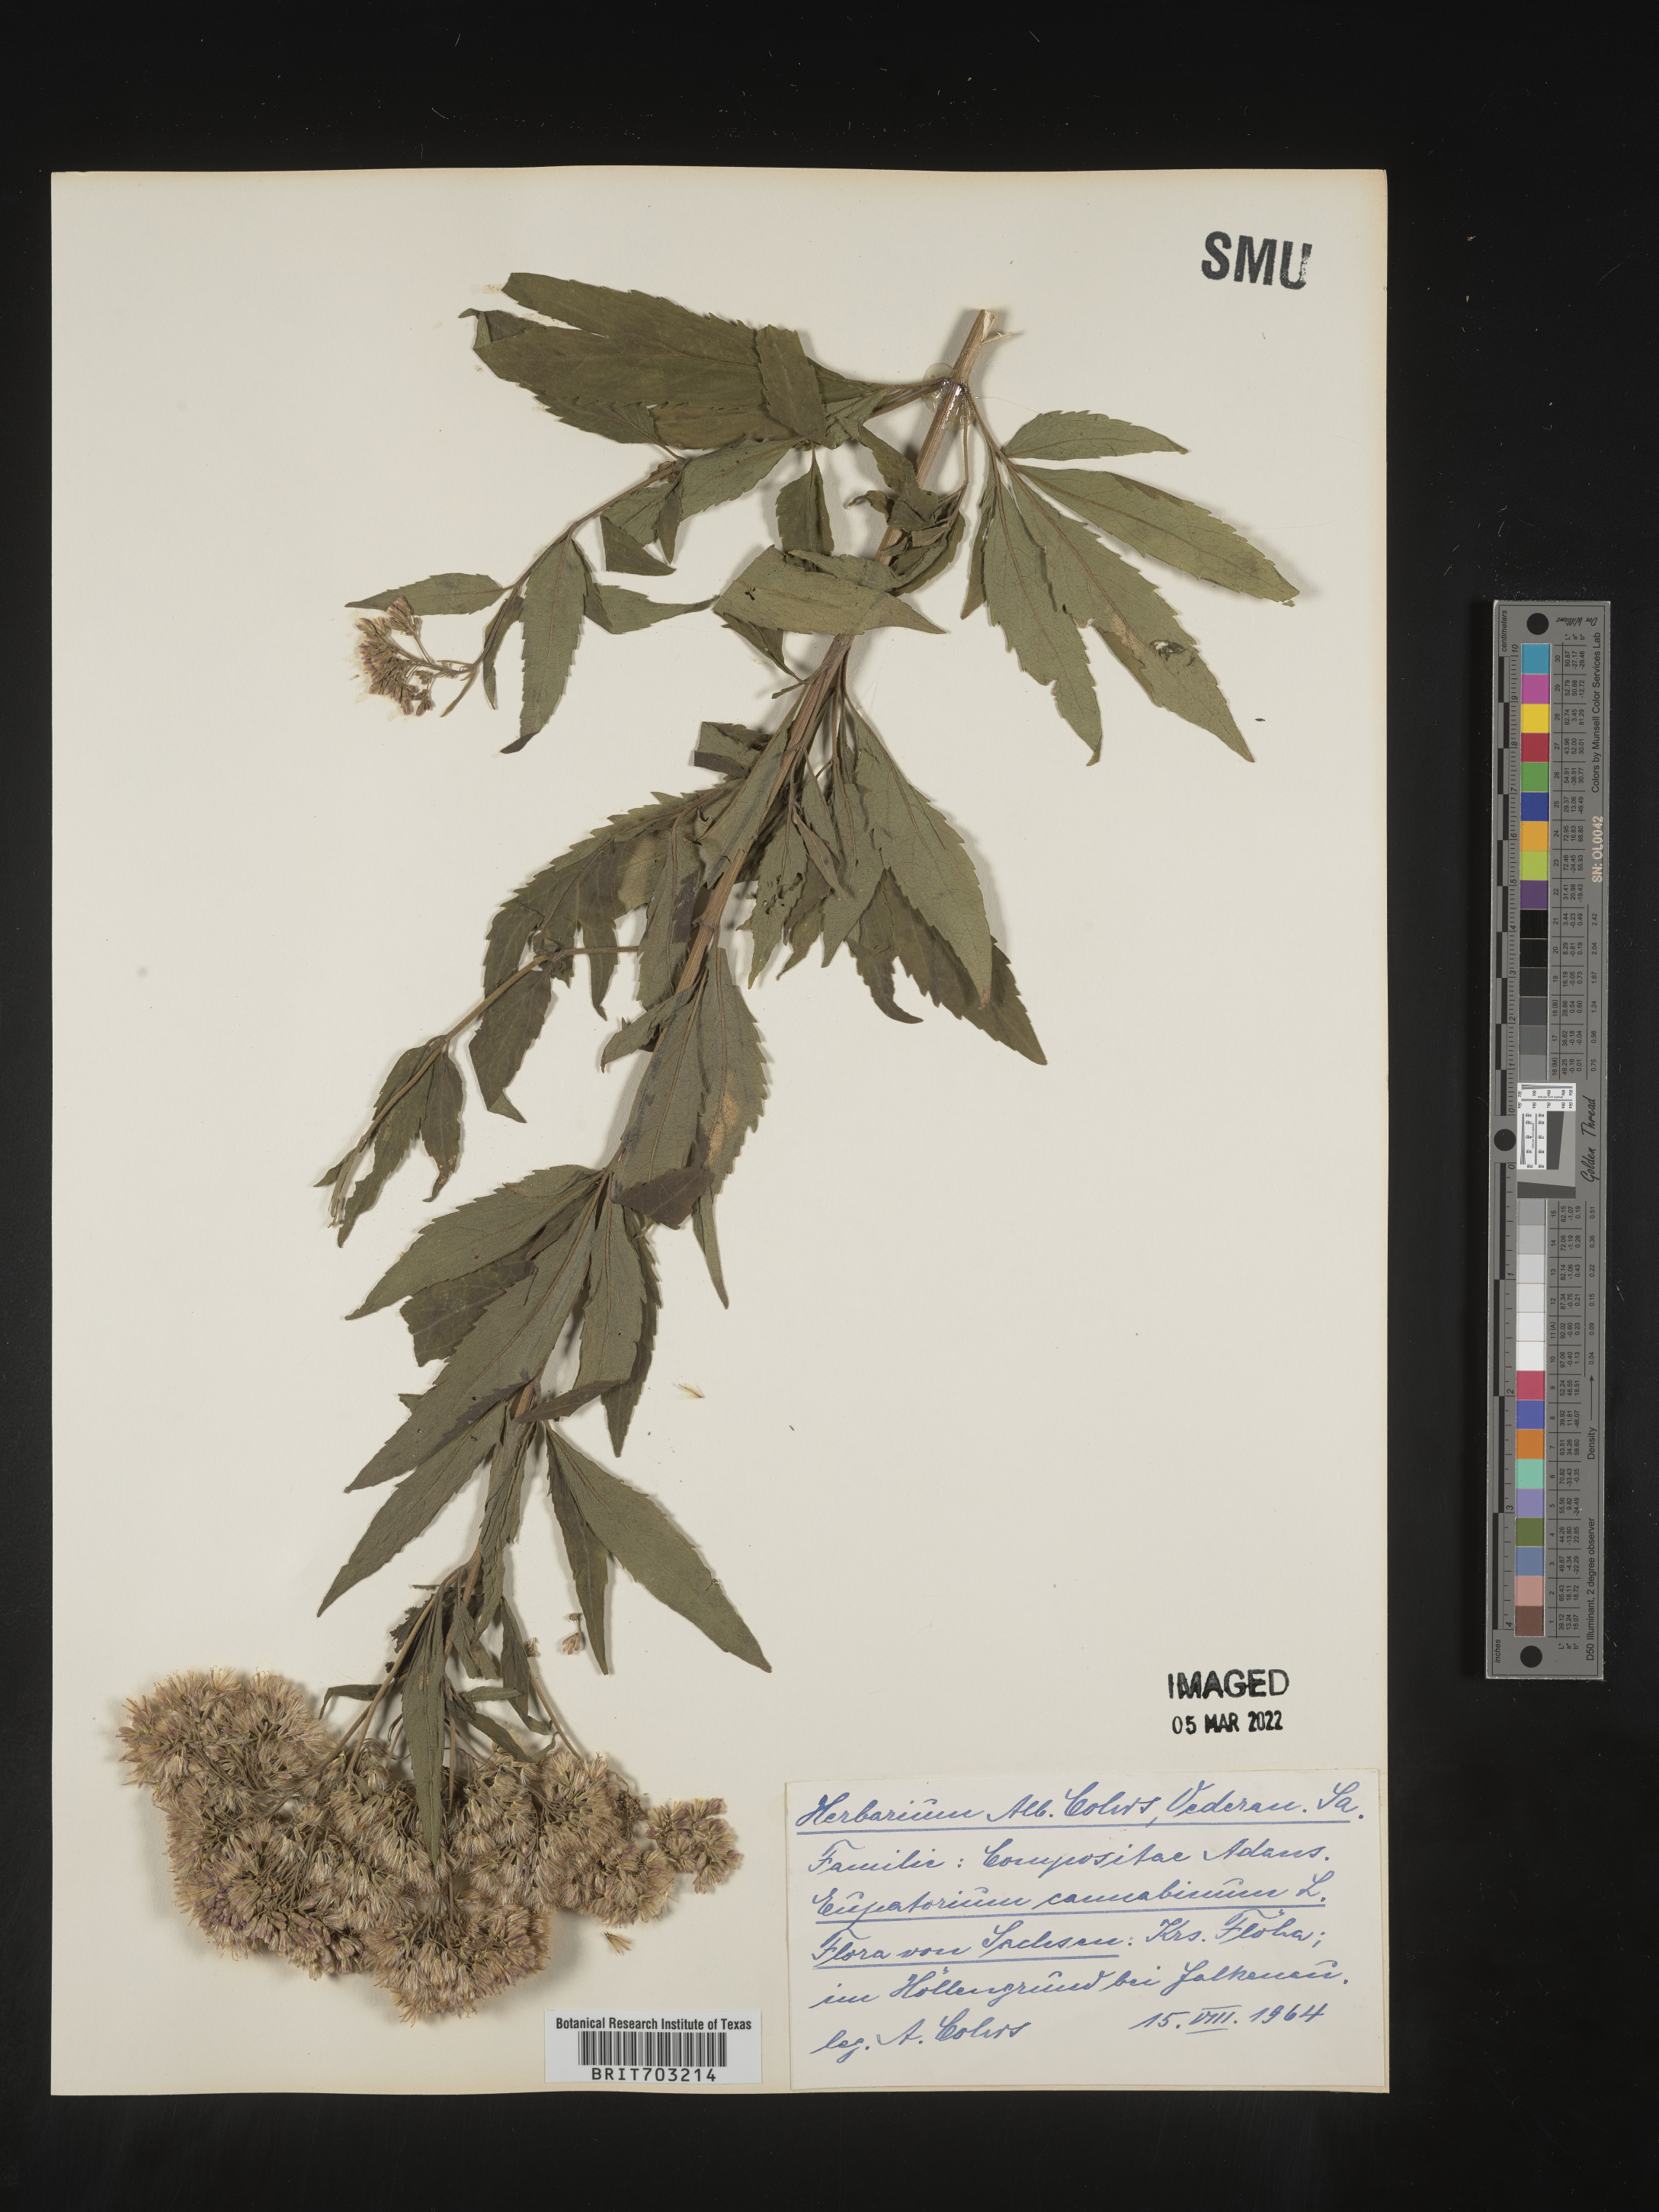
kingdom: Plantae
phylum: Tracheophyta
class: Magnoliopsida
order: Asterales
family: Asteraceae
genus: Eupatorium
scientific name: Eupatorium
